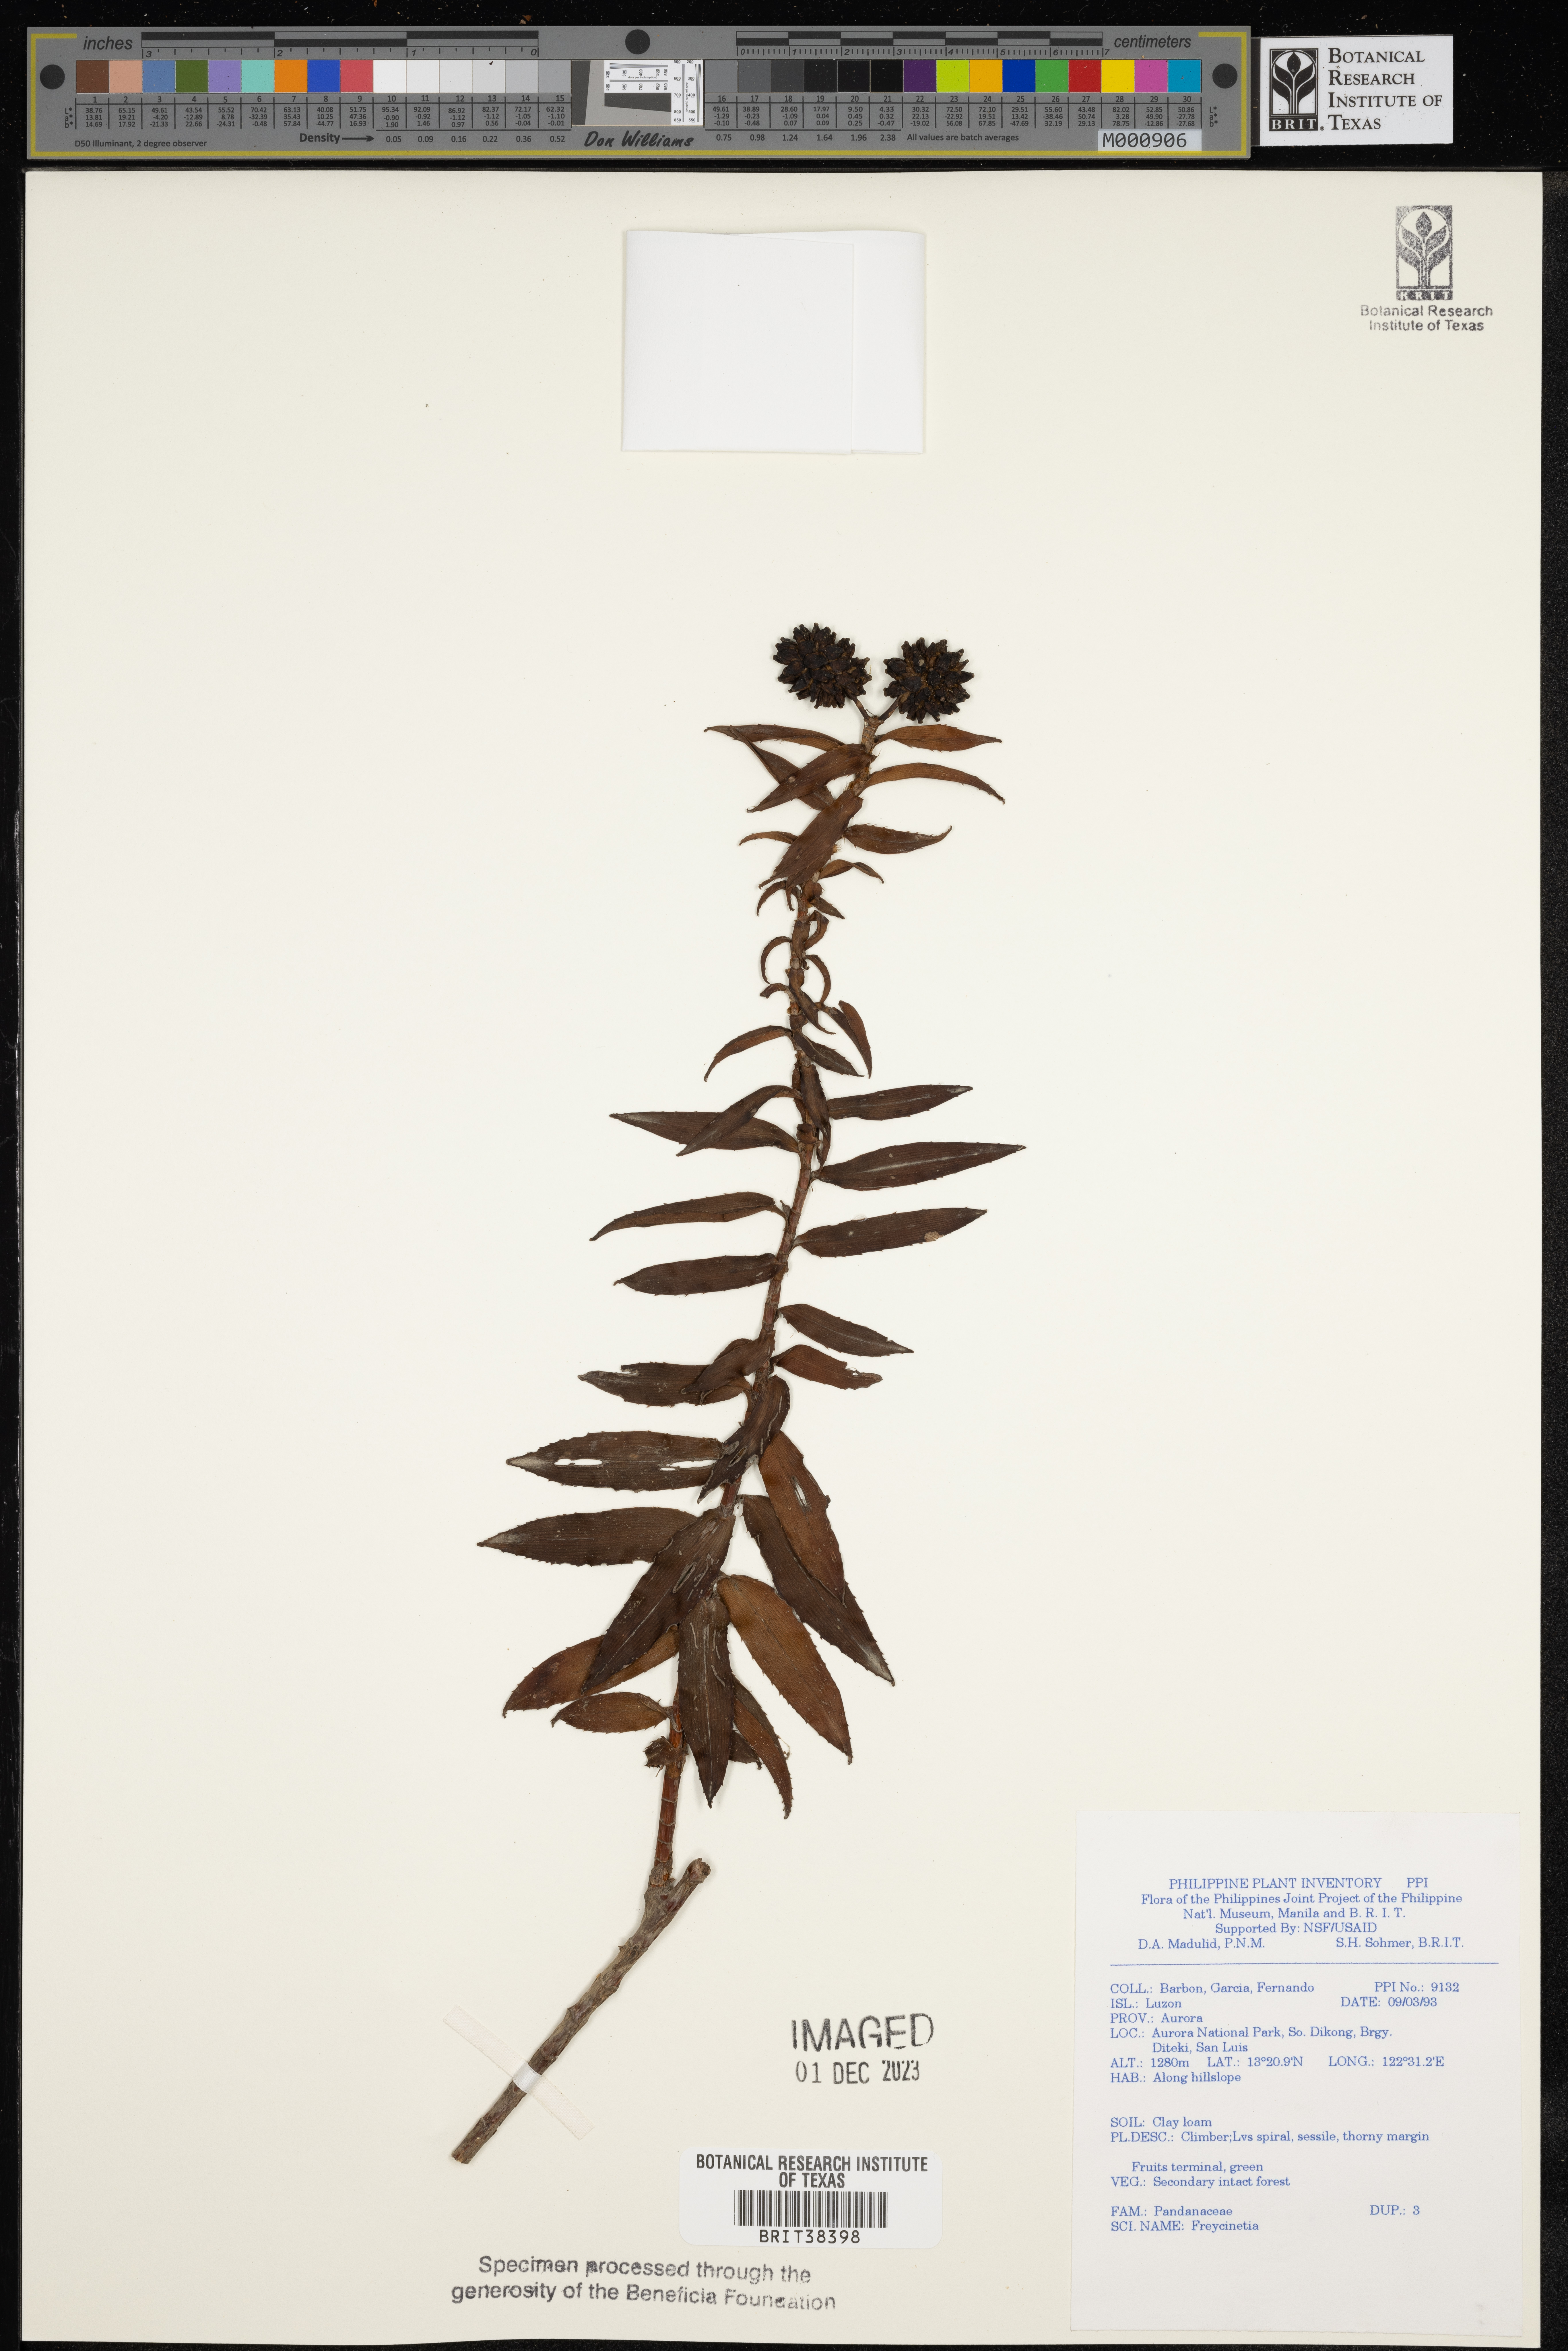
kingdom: Plantae
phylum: Tracheophyta
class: Liliopsida
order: Pandanales
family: Pandanaceae
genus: Freycinetia
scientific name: Freycinetia
